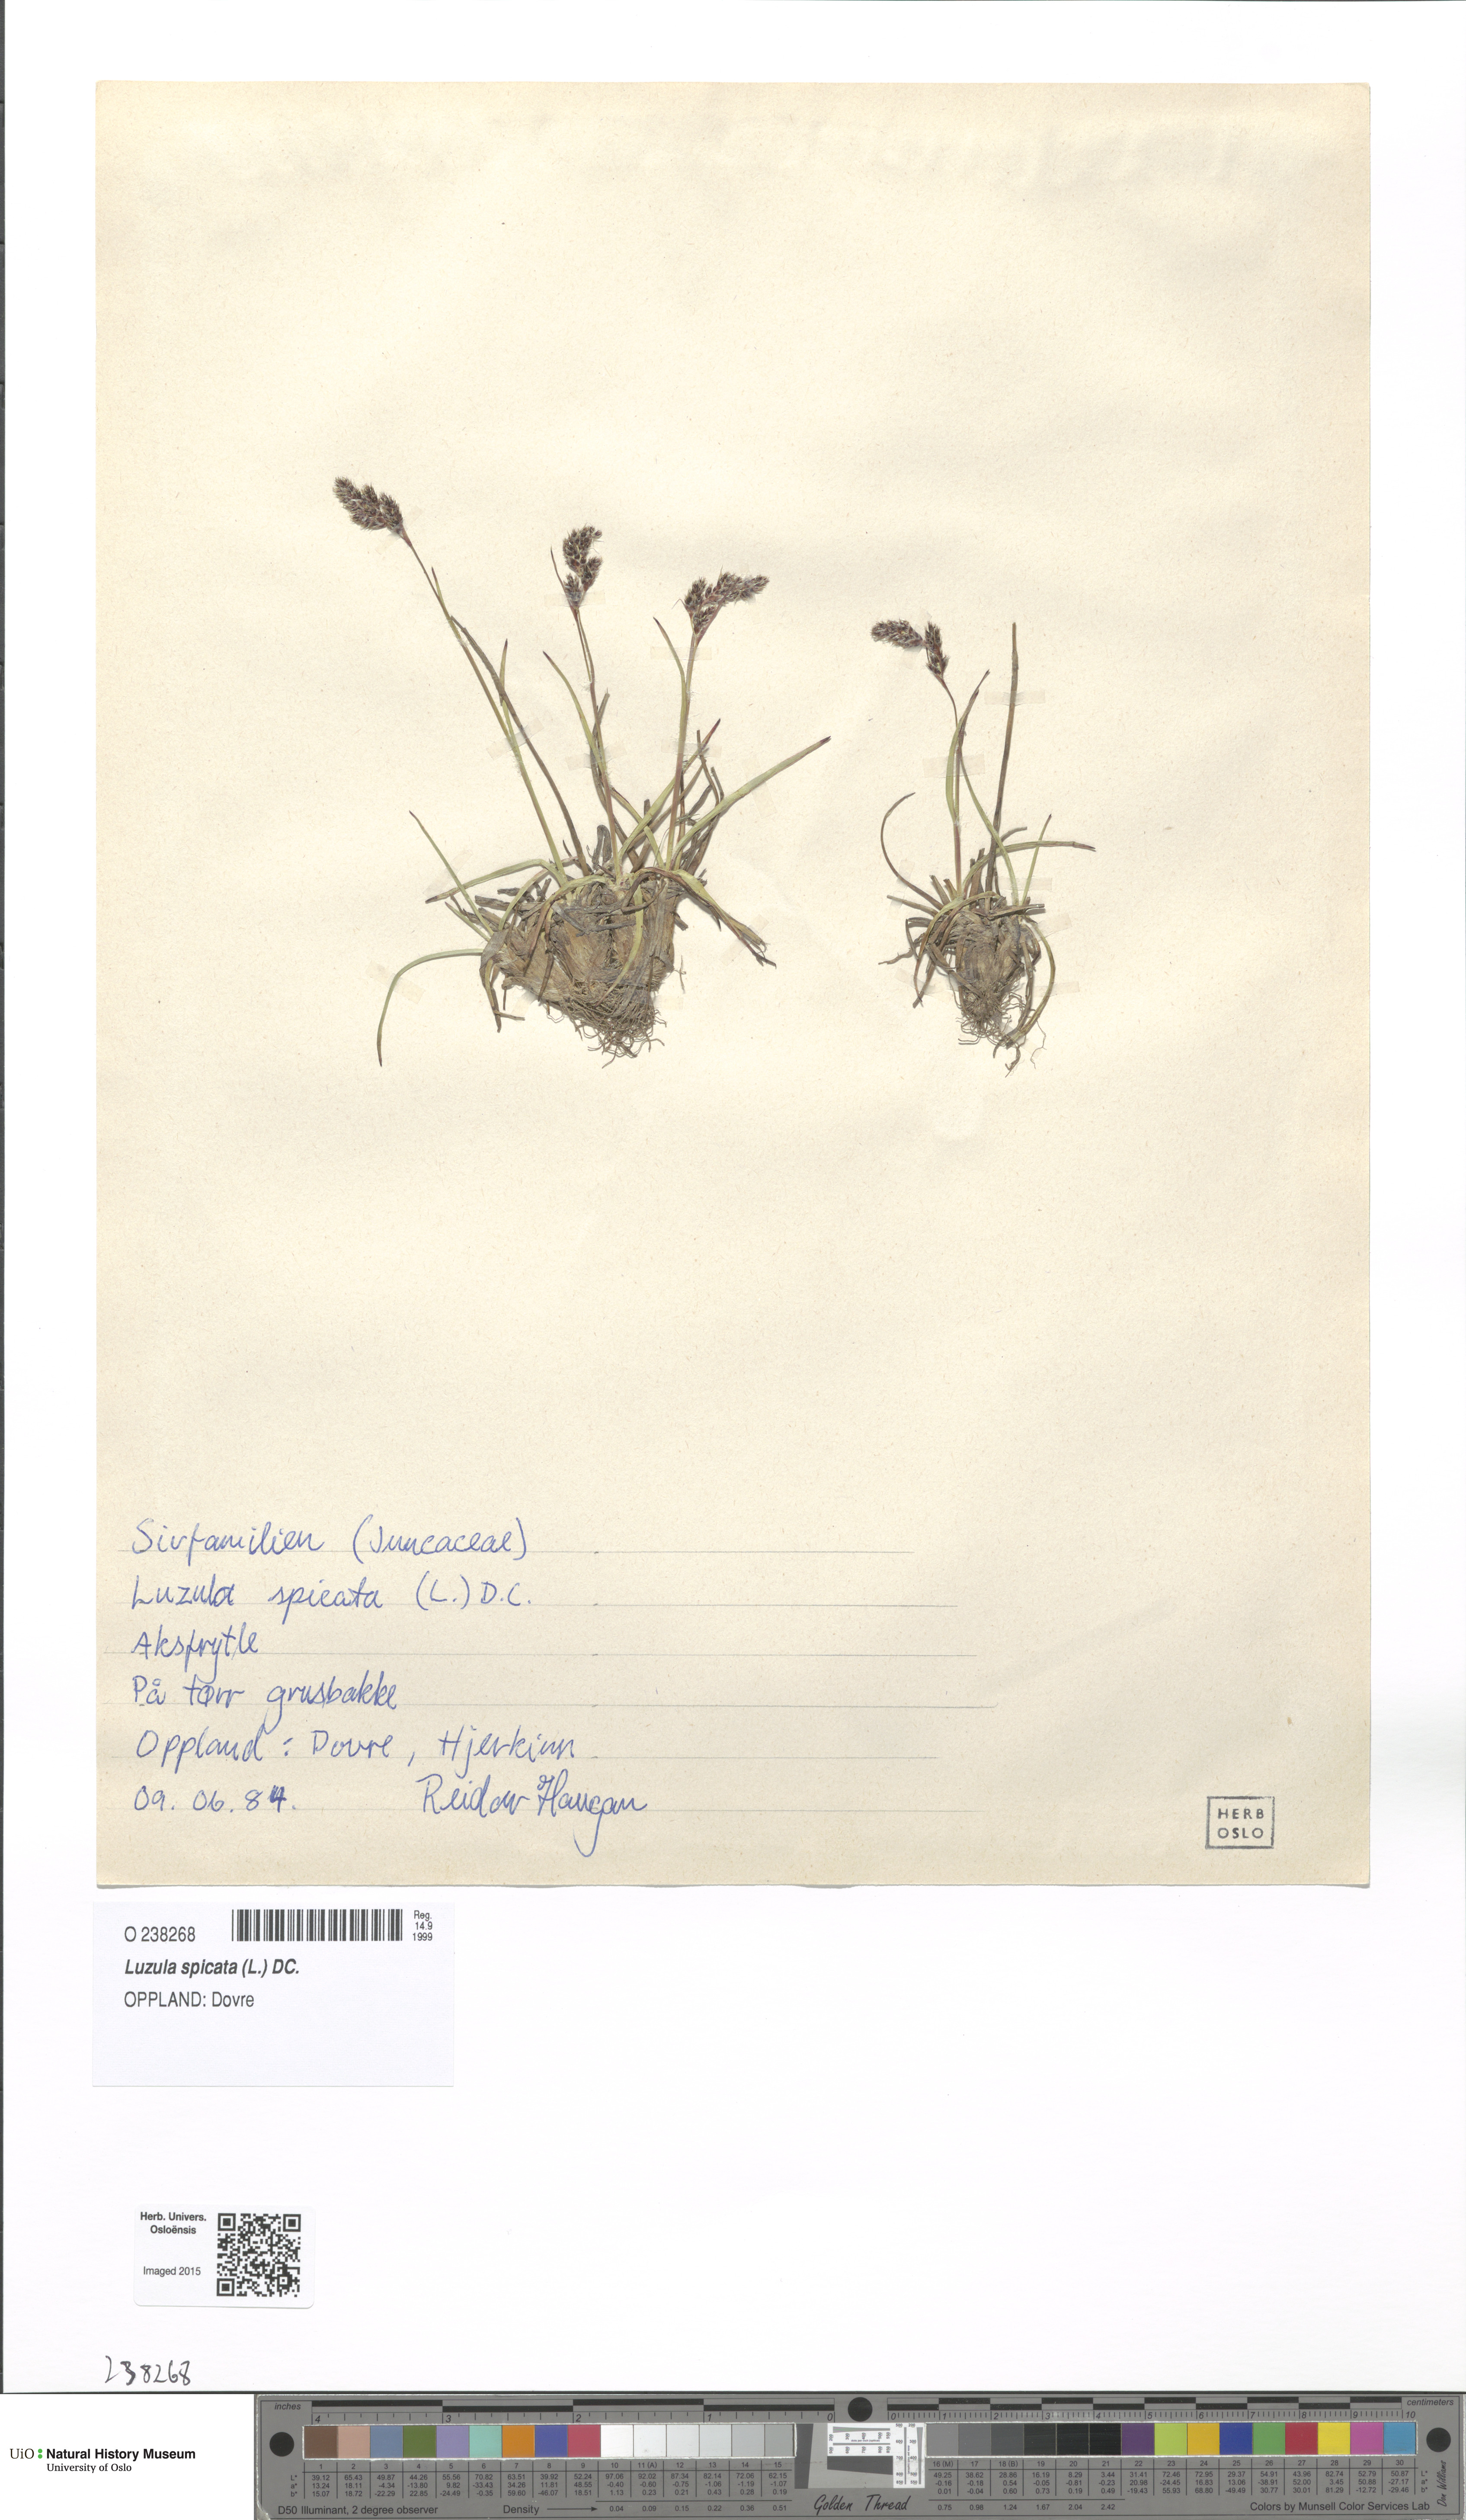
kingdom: Plantae
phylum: Tracheophyta
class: Liliopsida
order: Poales
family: Juncaceae
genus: Luzula
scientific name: Luzula spicata
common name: Spiked wood-rush
